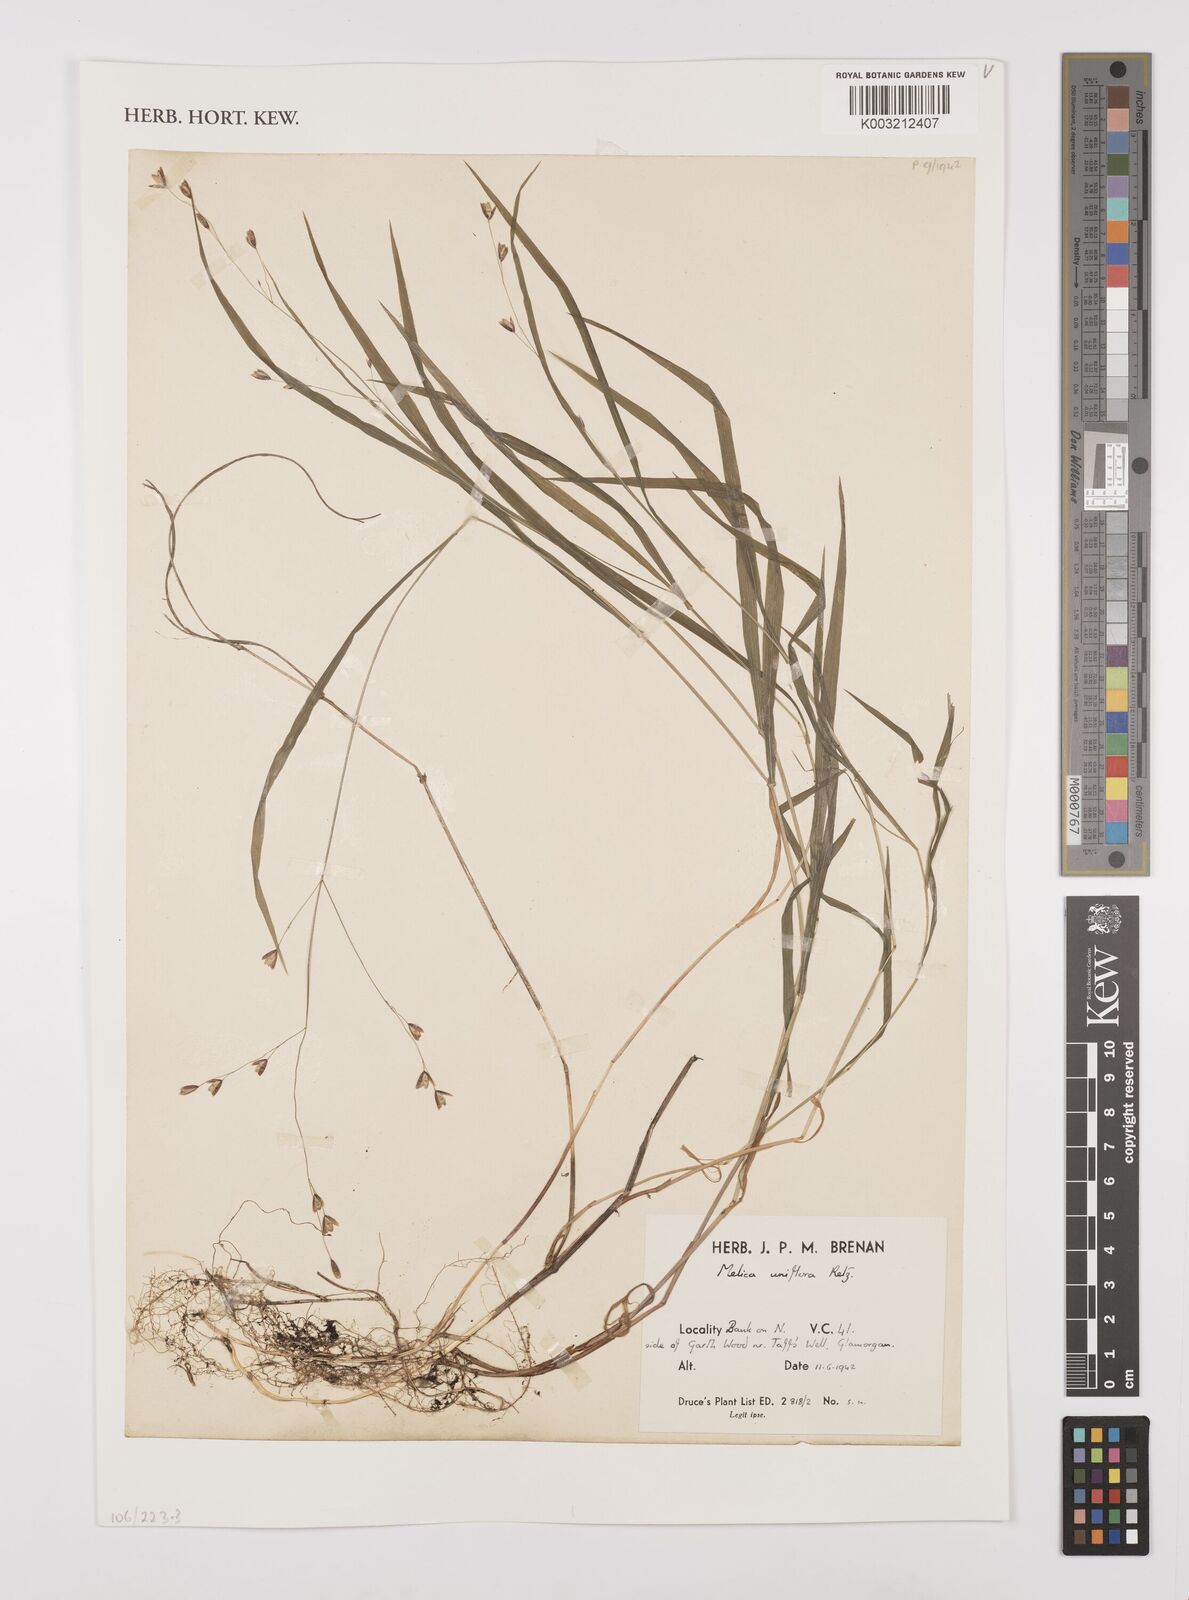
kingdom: Plantae
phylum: Tracheophyta
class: Liliopsida
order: Poales
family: Poaceae
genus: Melica
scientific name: Melica uniflora
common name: Wood melick
